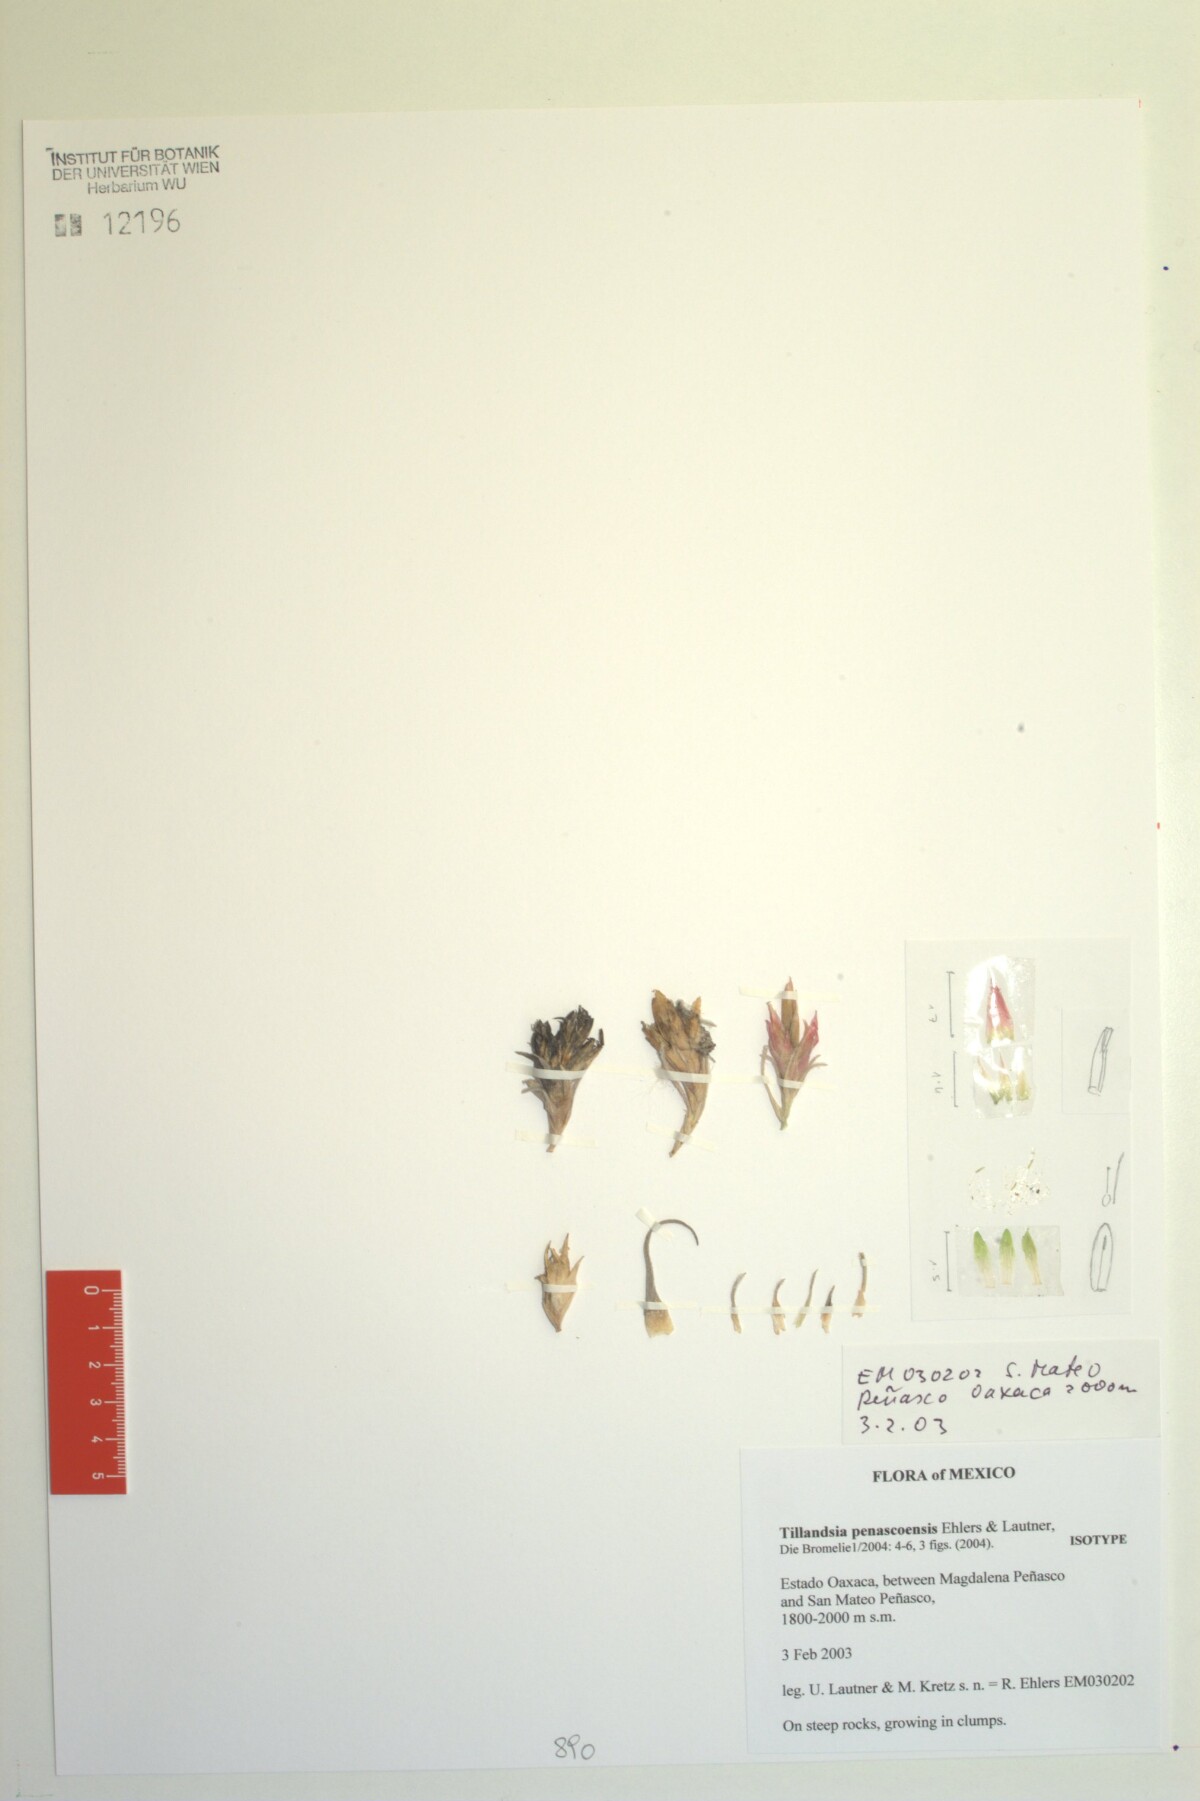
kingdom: Plantae
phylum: Tracheophyta
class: Liliopsida
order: Poales
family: Bromeliaceae
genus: Tillandsia
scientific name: Tillandsia penascoensis
